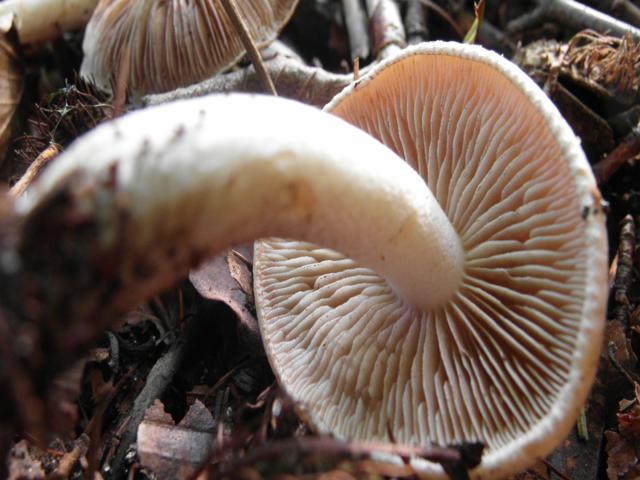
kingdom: Fungi
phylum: Basidiomycota
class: Agaricomycetes
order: Agaricales
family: Hymenogastraceae
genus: Hebeloma
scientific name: Hebeloma leucosarx
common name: højstokket tåreblad
